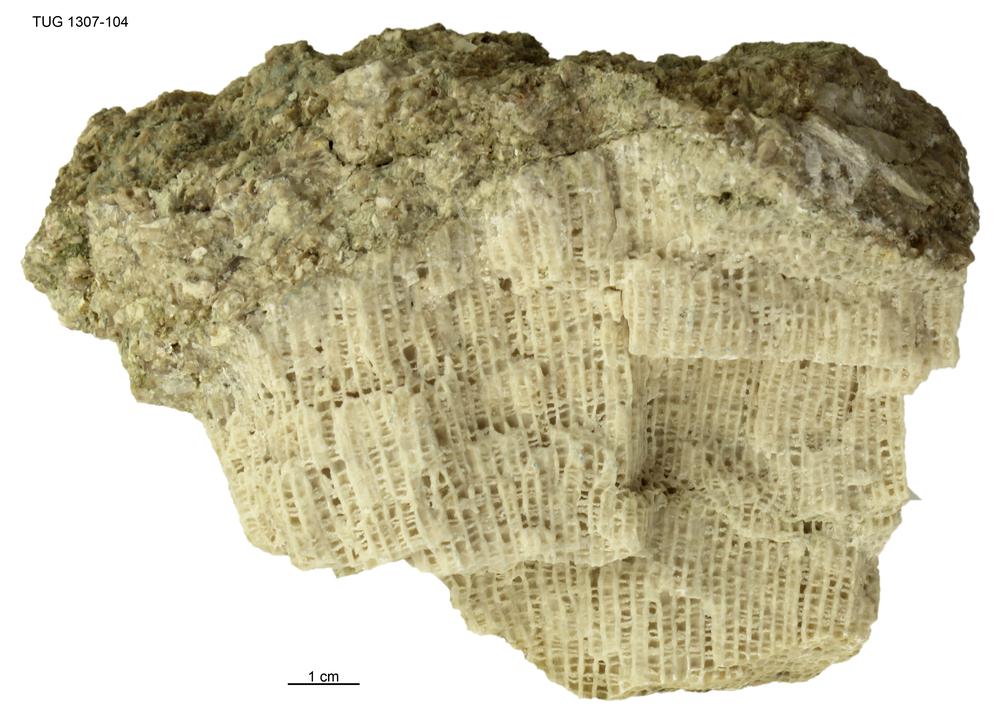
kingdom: Animalia
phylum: Cnidaria
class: Anthozoa
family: Favositidae
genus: Saffordophyllum
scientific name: Saffordophyllum
